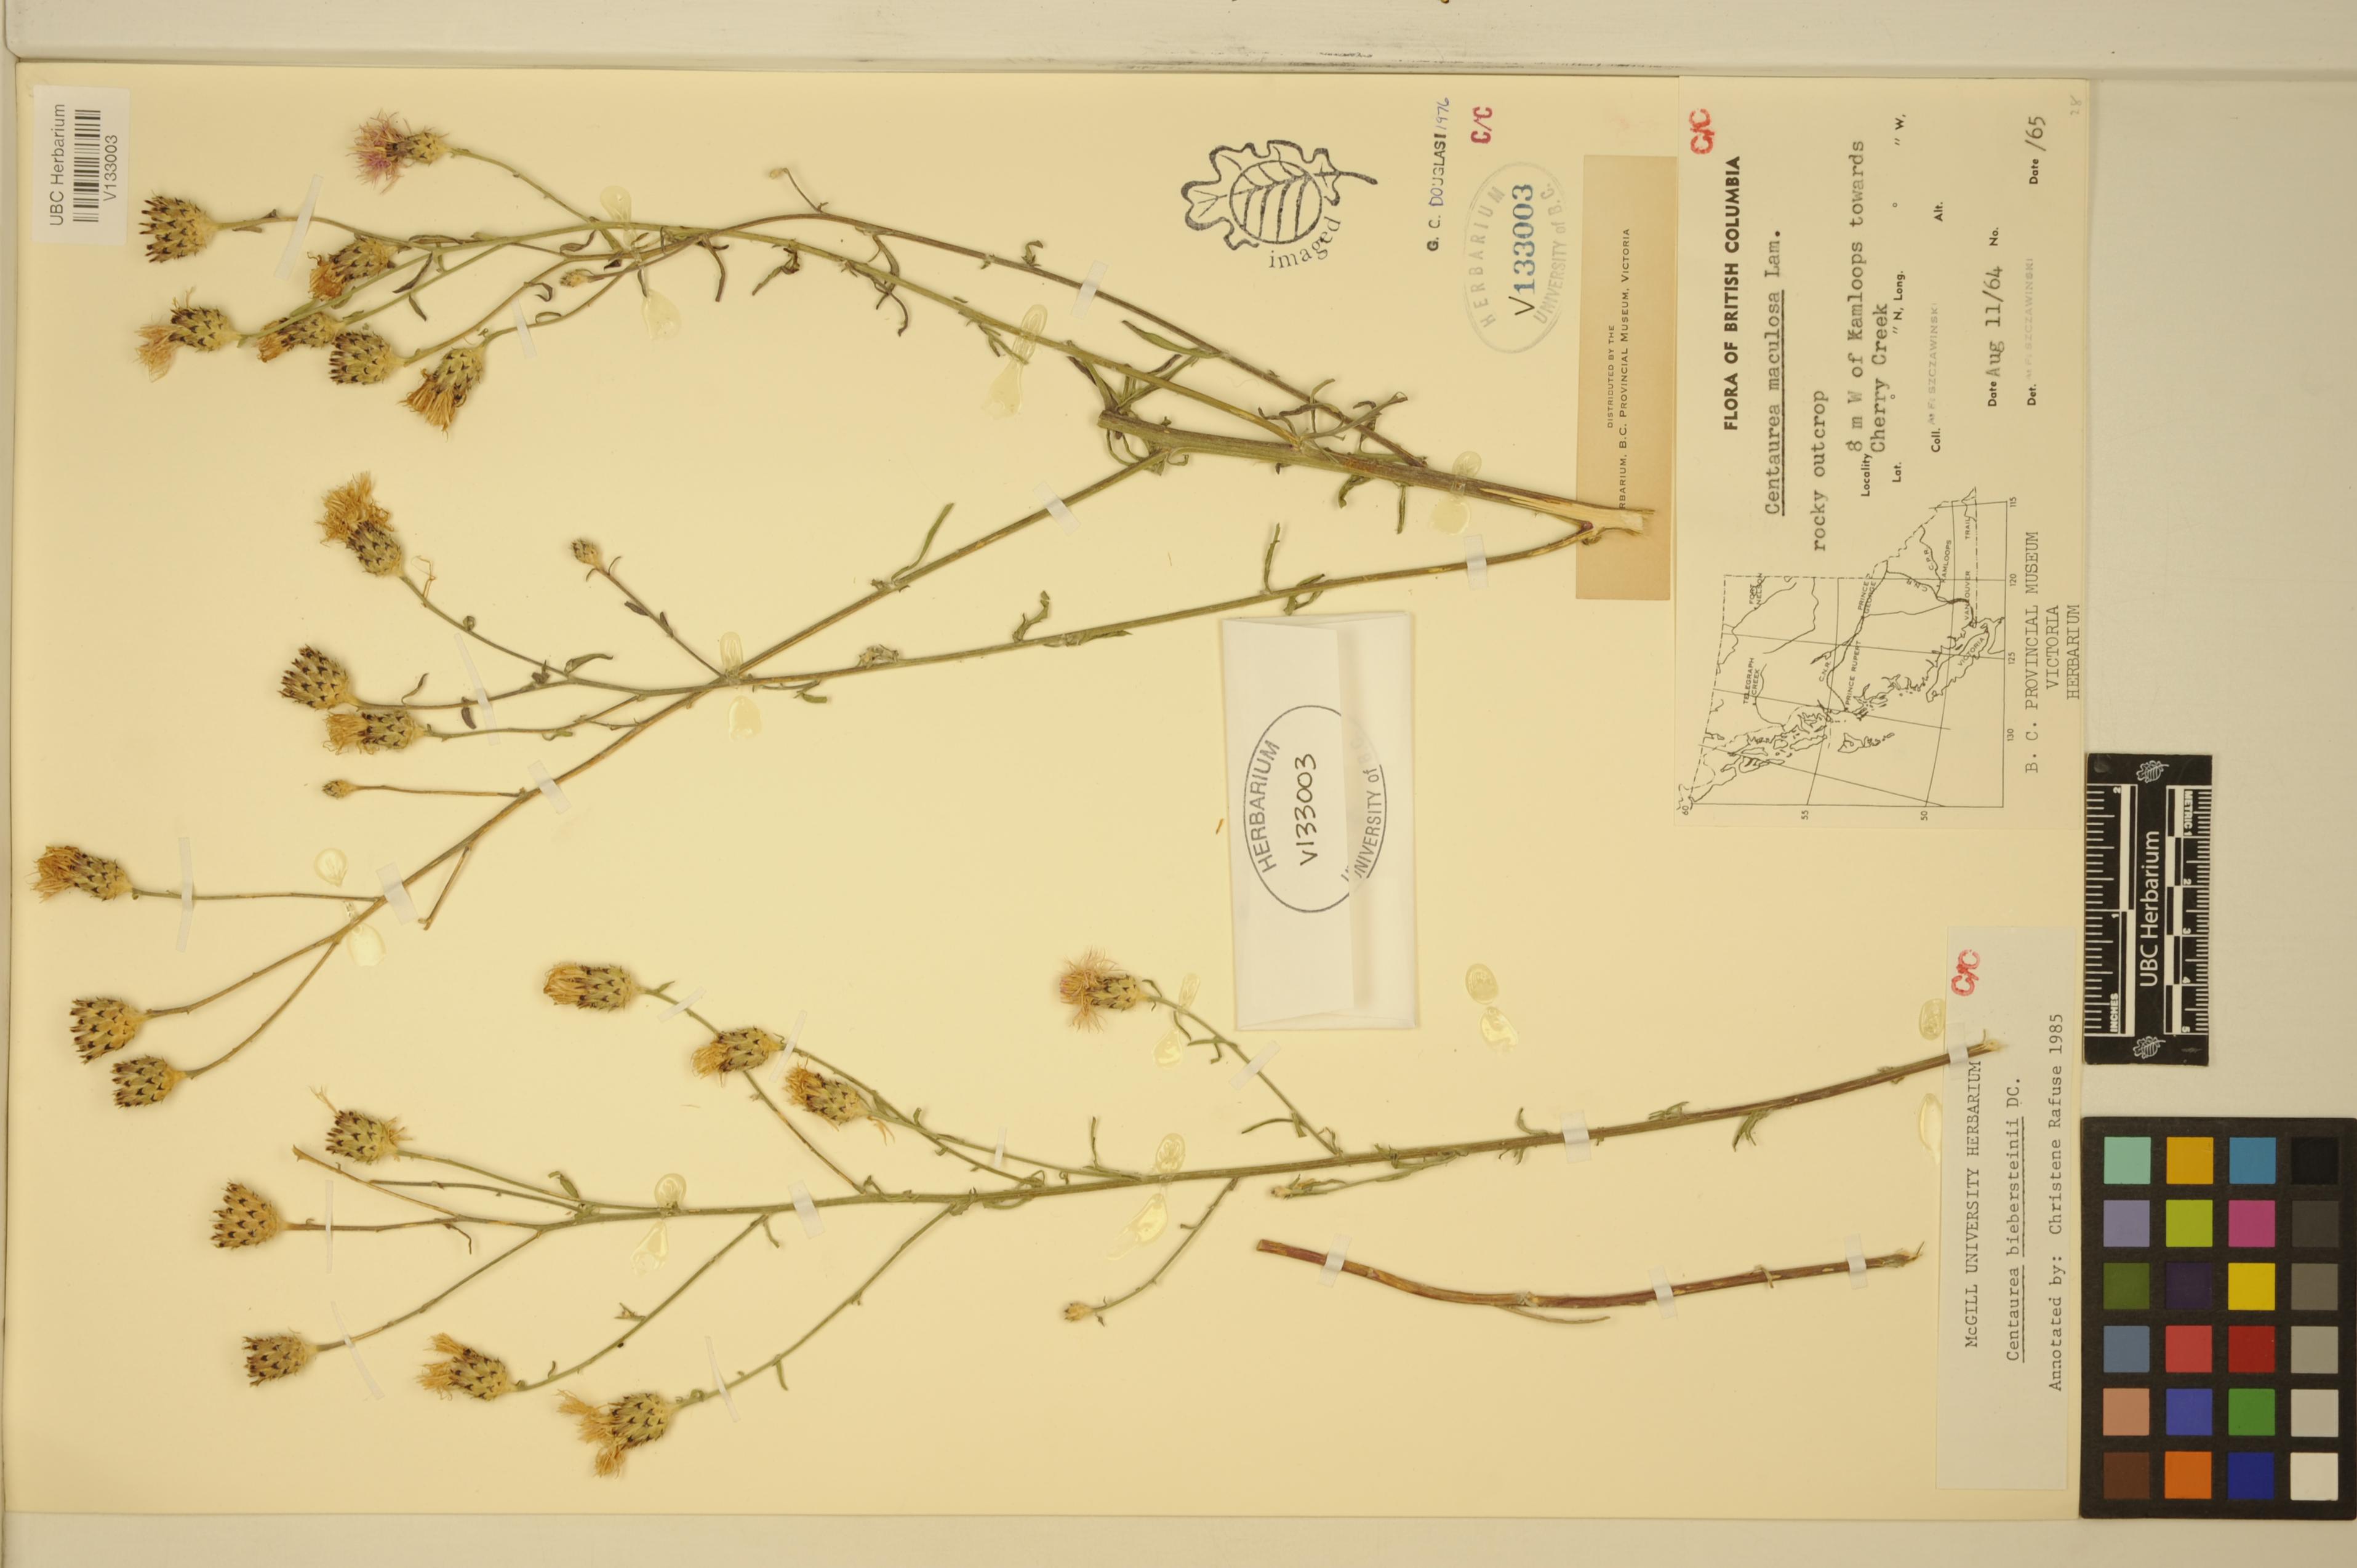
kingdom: Plantae
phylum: Tracheophyta
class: Magnoliopsida
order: Asterales
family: Asteraceae
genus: Centaurea
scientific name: Centaurea australis
